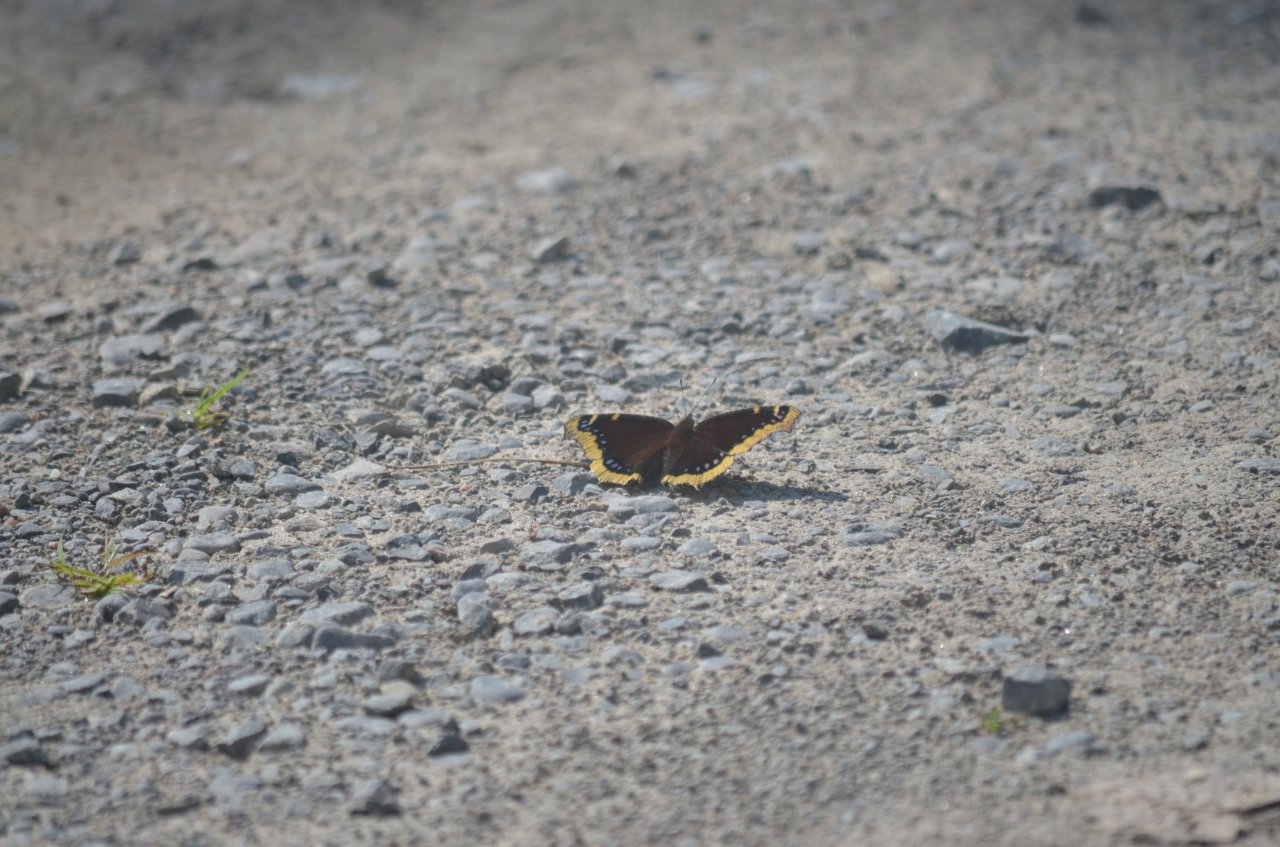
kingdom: Animalia
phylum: Arthropoda
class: Insecta
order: Lepidoptera
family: Nymphalidae
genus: Nymphalis
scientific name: Nymphalis antiopa
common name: Mourning Cloak
